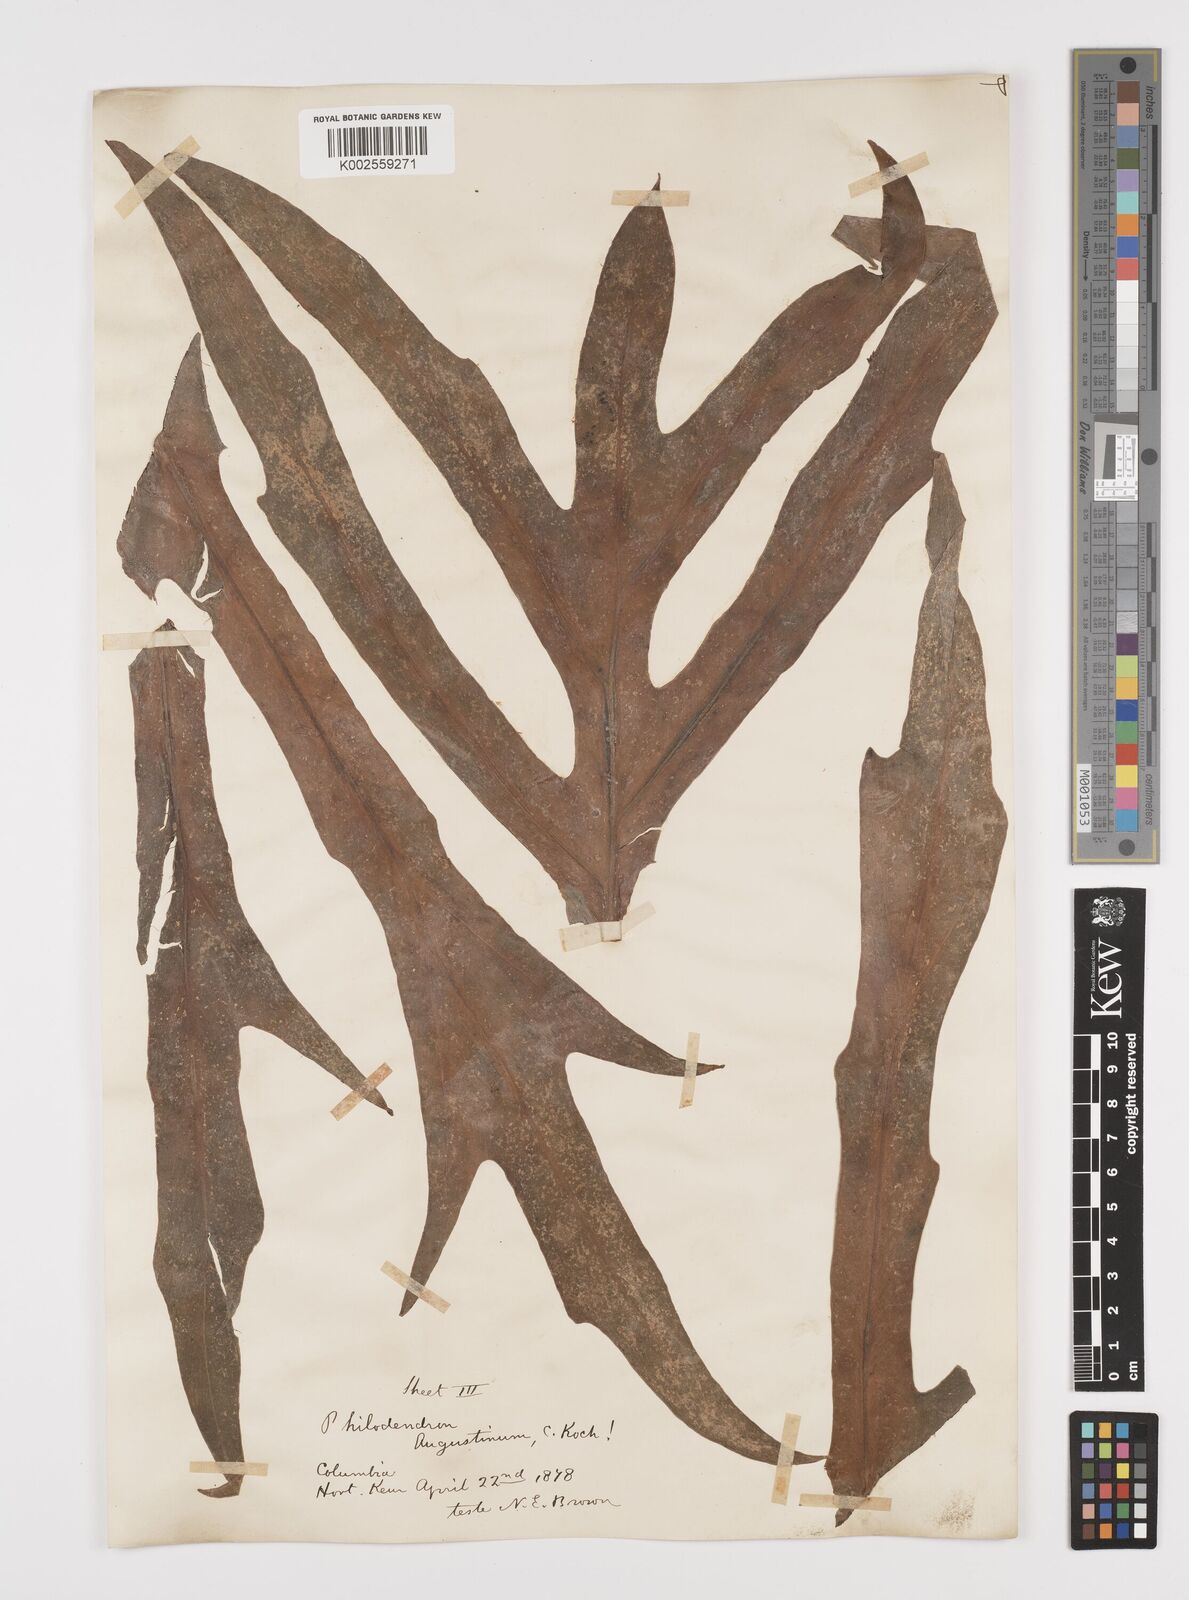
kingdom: Plantae
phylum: Tracheophyta
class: Liliopsida
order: Alismatales
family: Araceae
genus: Philodendron
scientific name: Philodendron radiatum
